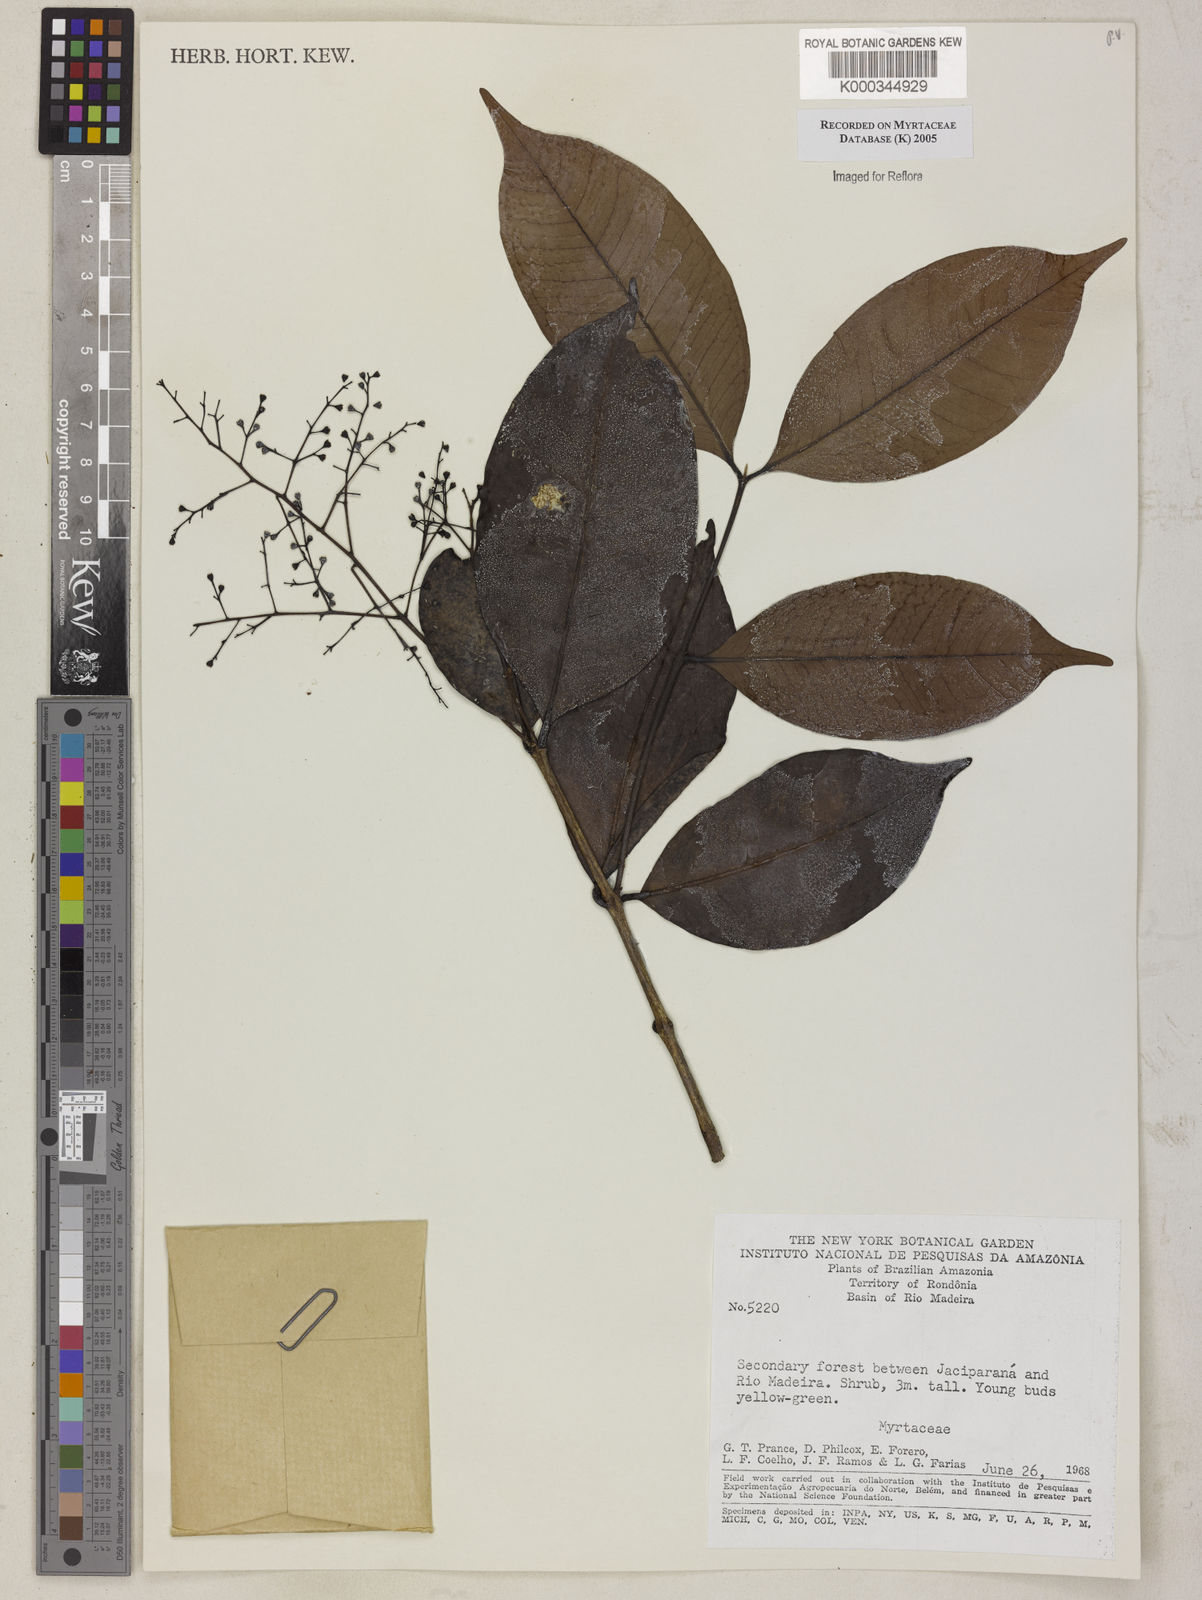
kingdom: Plantae
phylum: Tracheophyta
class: Magnoliopsida
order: Myrtales
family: Myrtaceae
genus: Myrcia
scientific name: Myrcia
